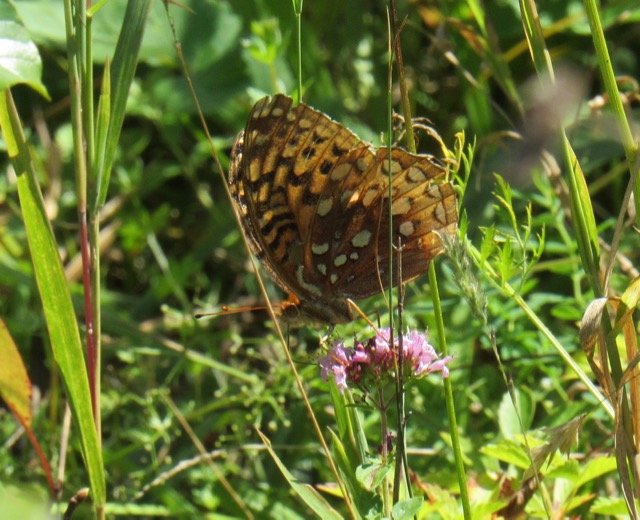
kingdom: Animalia
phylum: Arthropoda
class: Insecta
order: Lepidoptera
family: Nymphalidae
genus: Speyeria
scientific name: Speyeria cybele
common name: Great Spangled Fritillary
